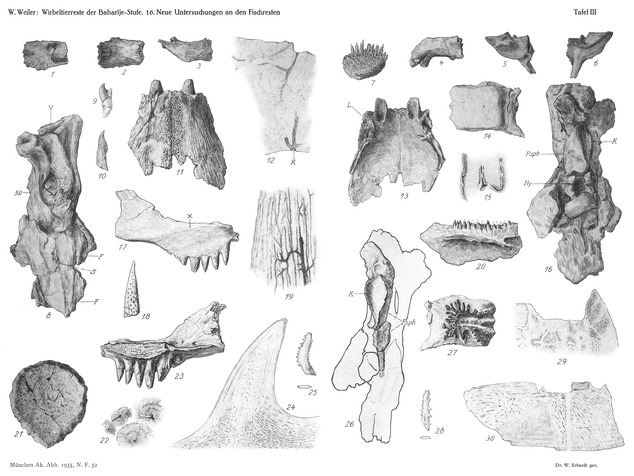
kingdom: Animalia
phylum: Chordata
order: Amiiformes
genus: Stromerichthys
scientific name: Stromerichthys aethiopicus
